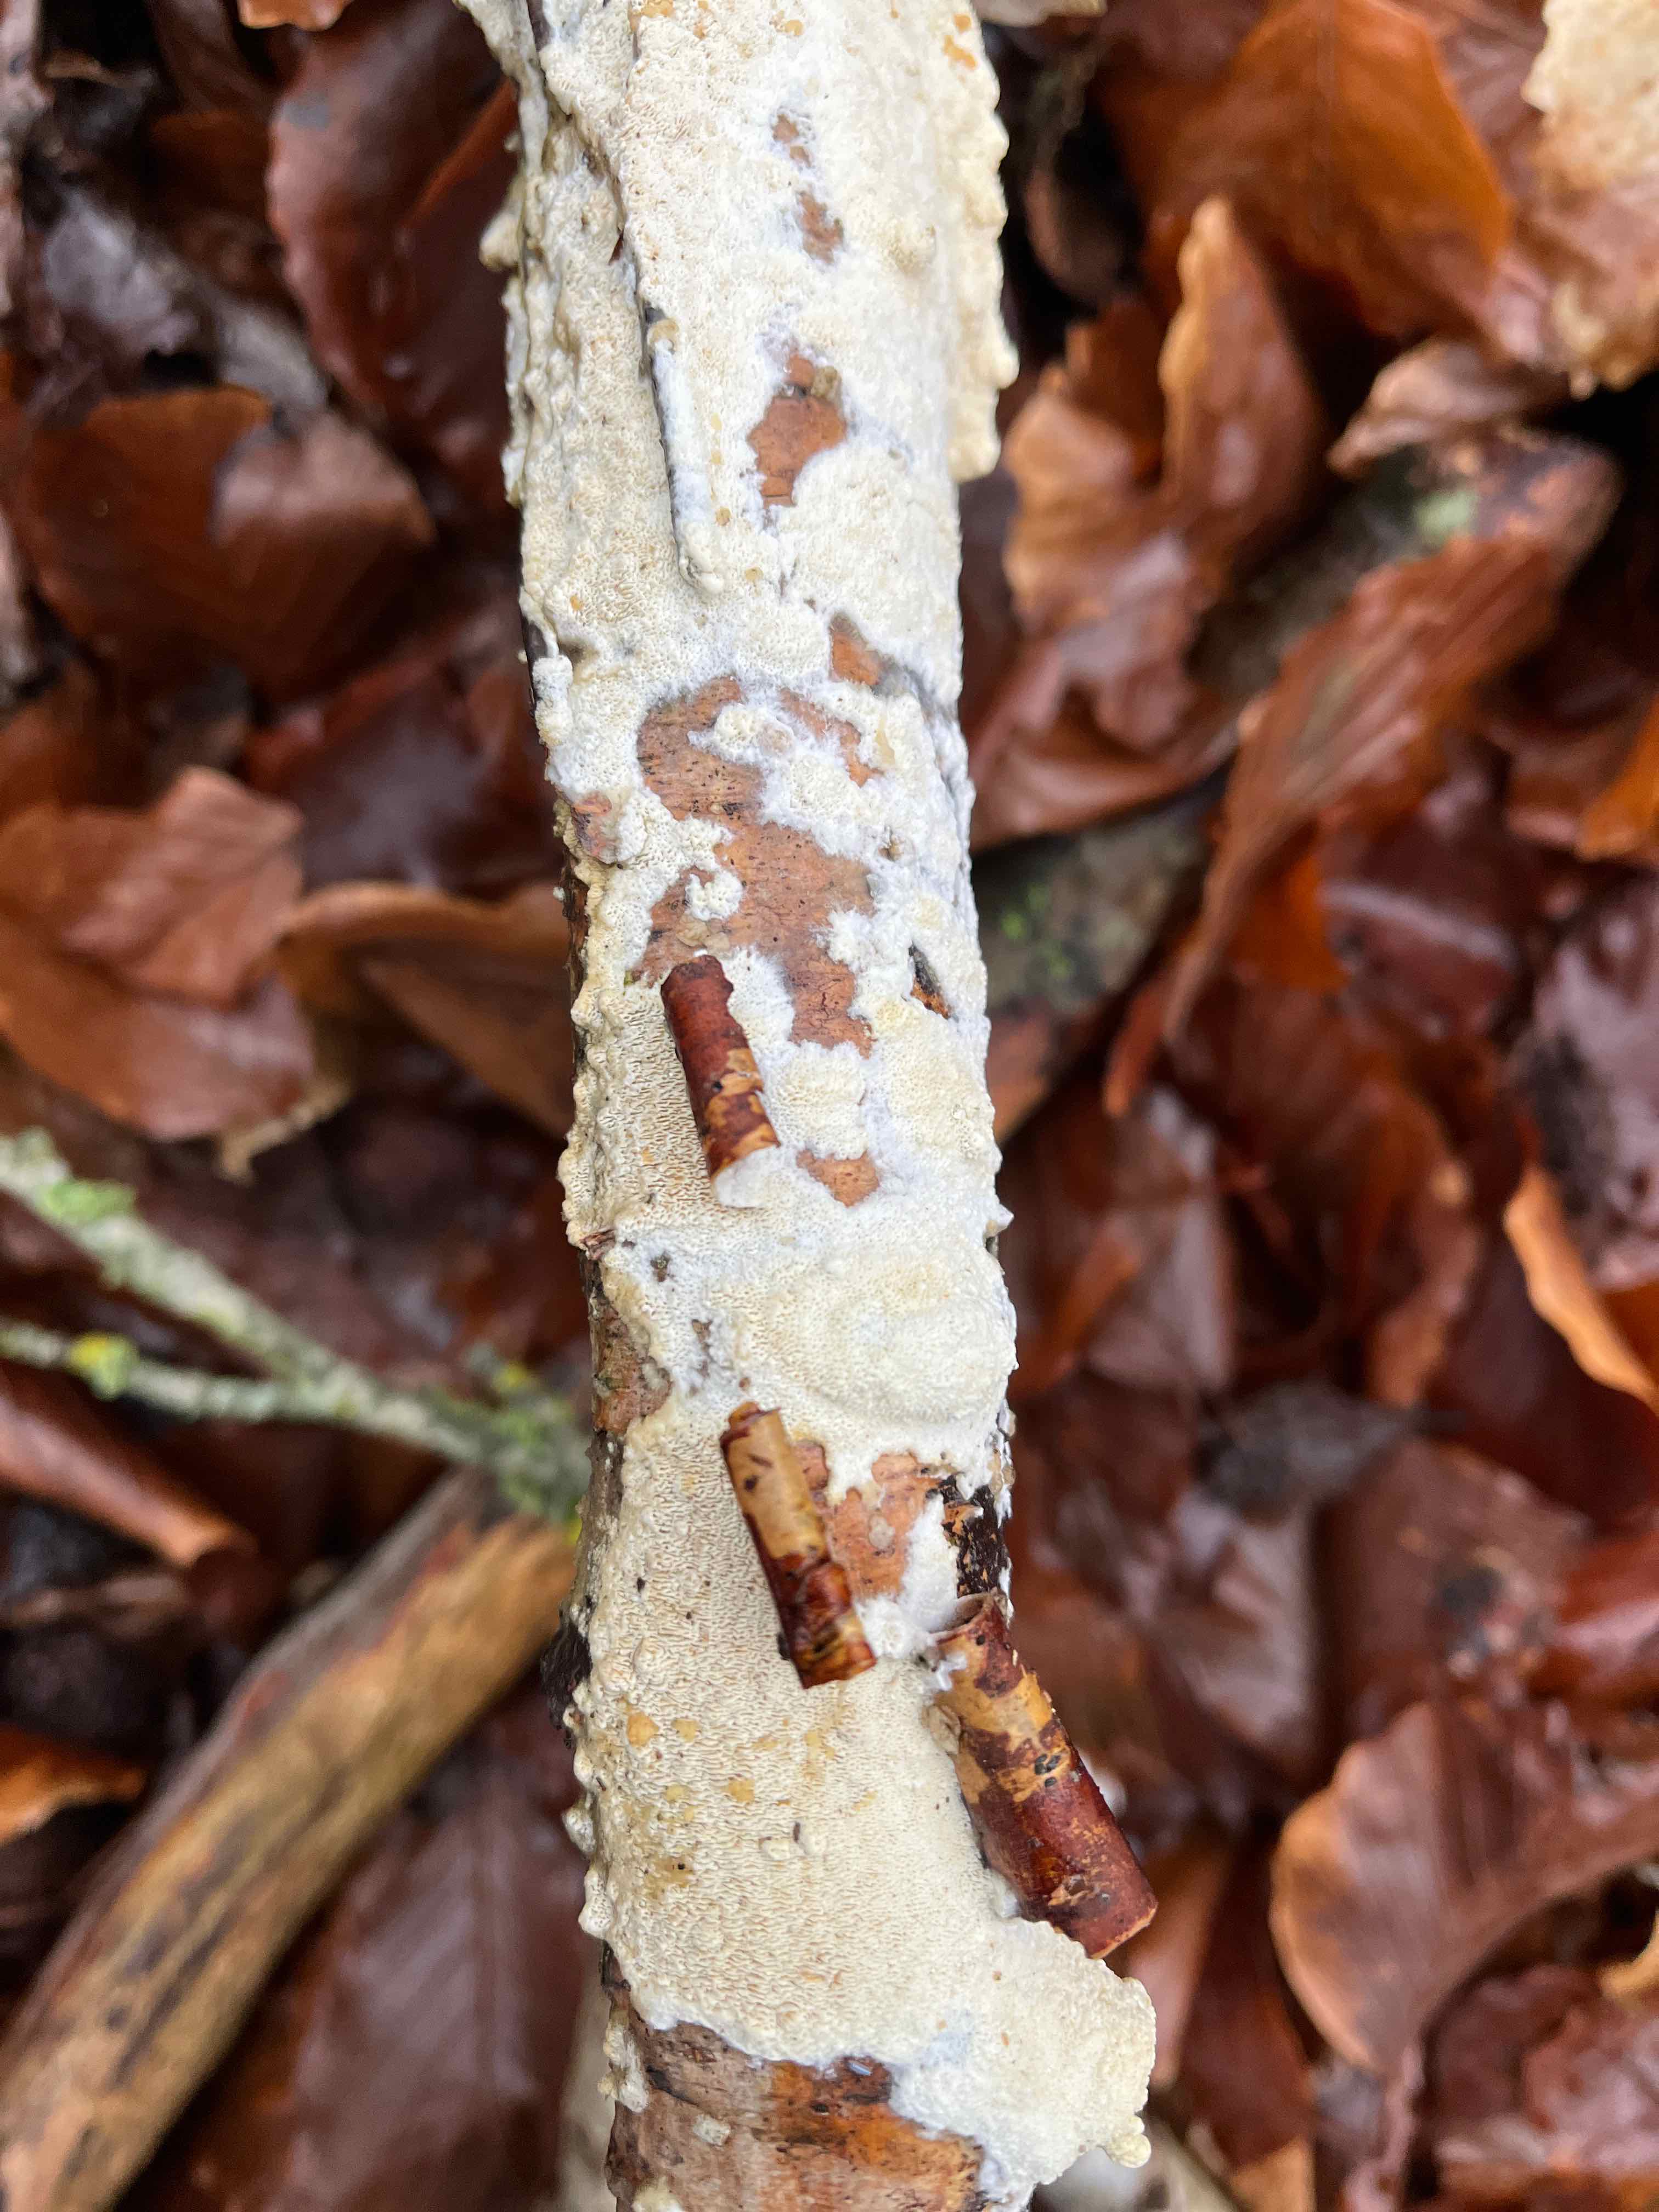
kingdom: Fungi
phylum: Basidiomycota
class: Agaricomycetes
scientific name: Agaricomycetes
